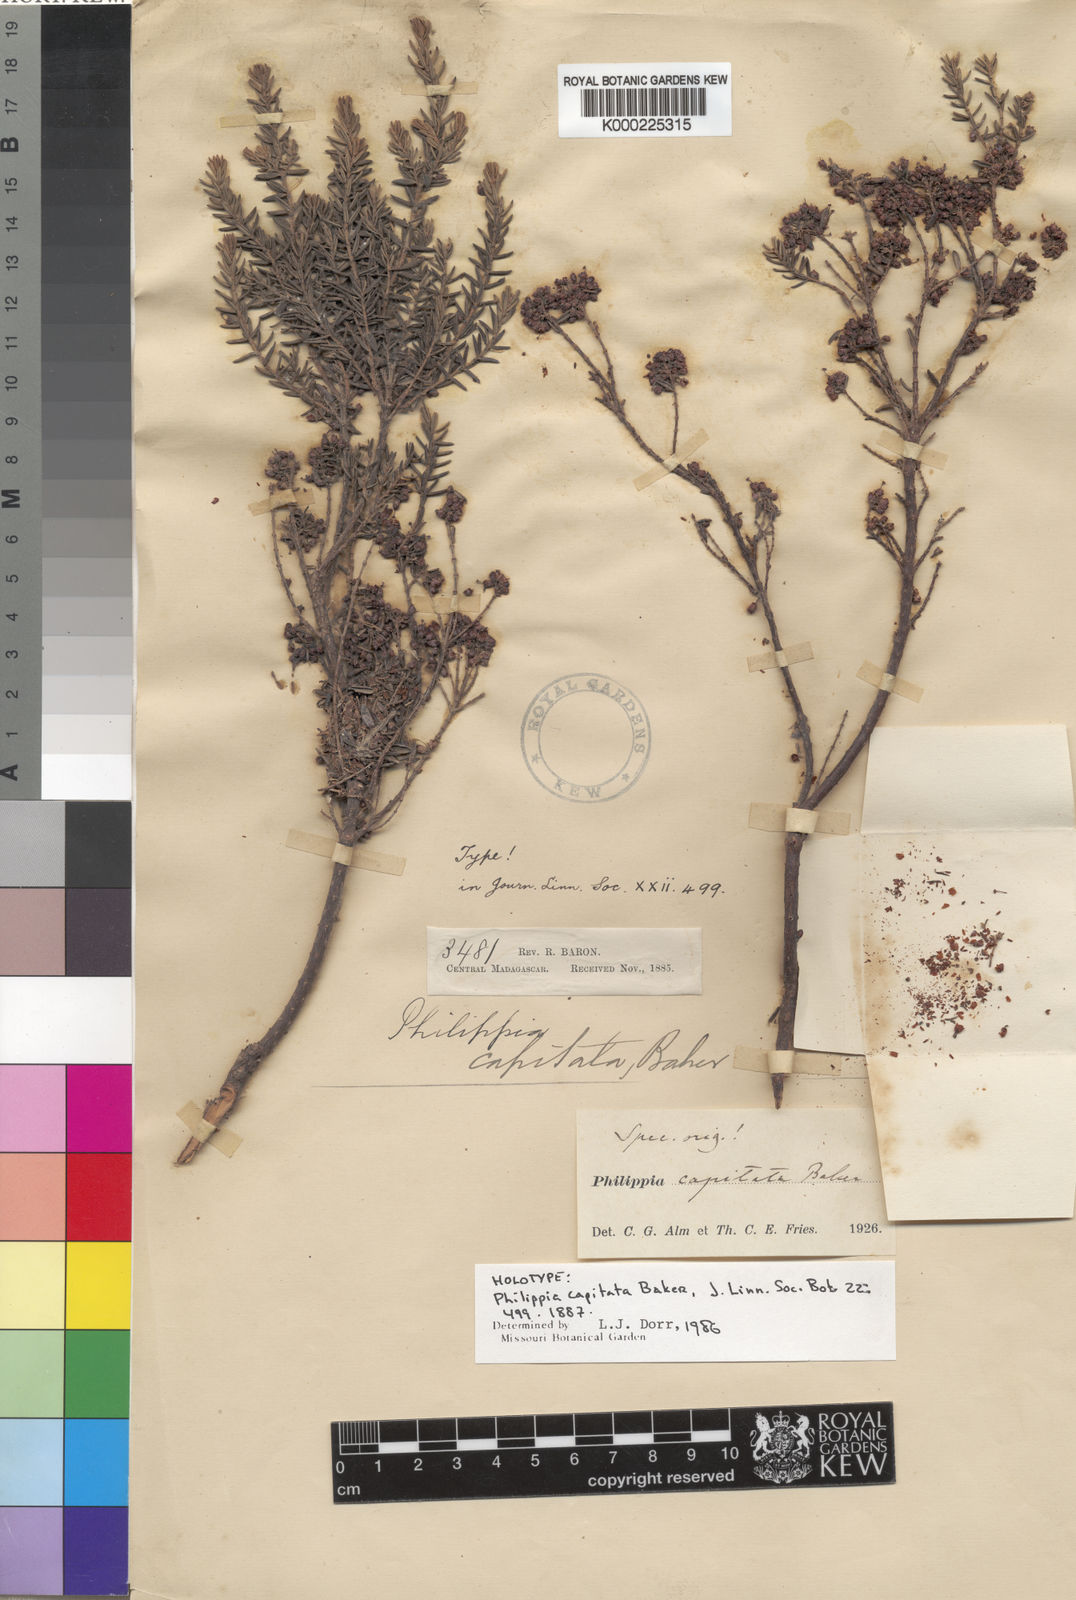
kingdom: Plantae
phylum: Tracheophyta
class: Magnoliopsida
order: Ericales
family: Ericaceae
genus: Erica
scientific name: Erica armandiana
